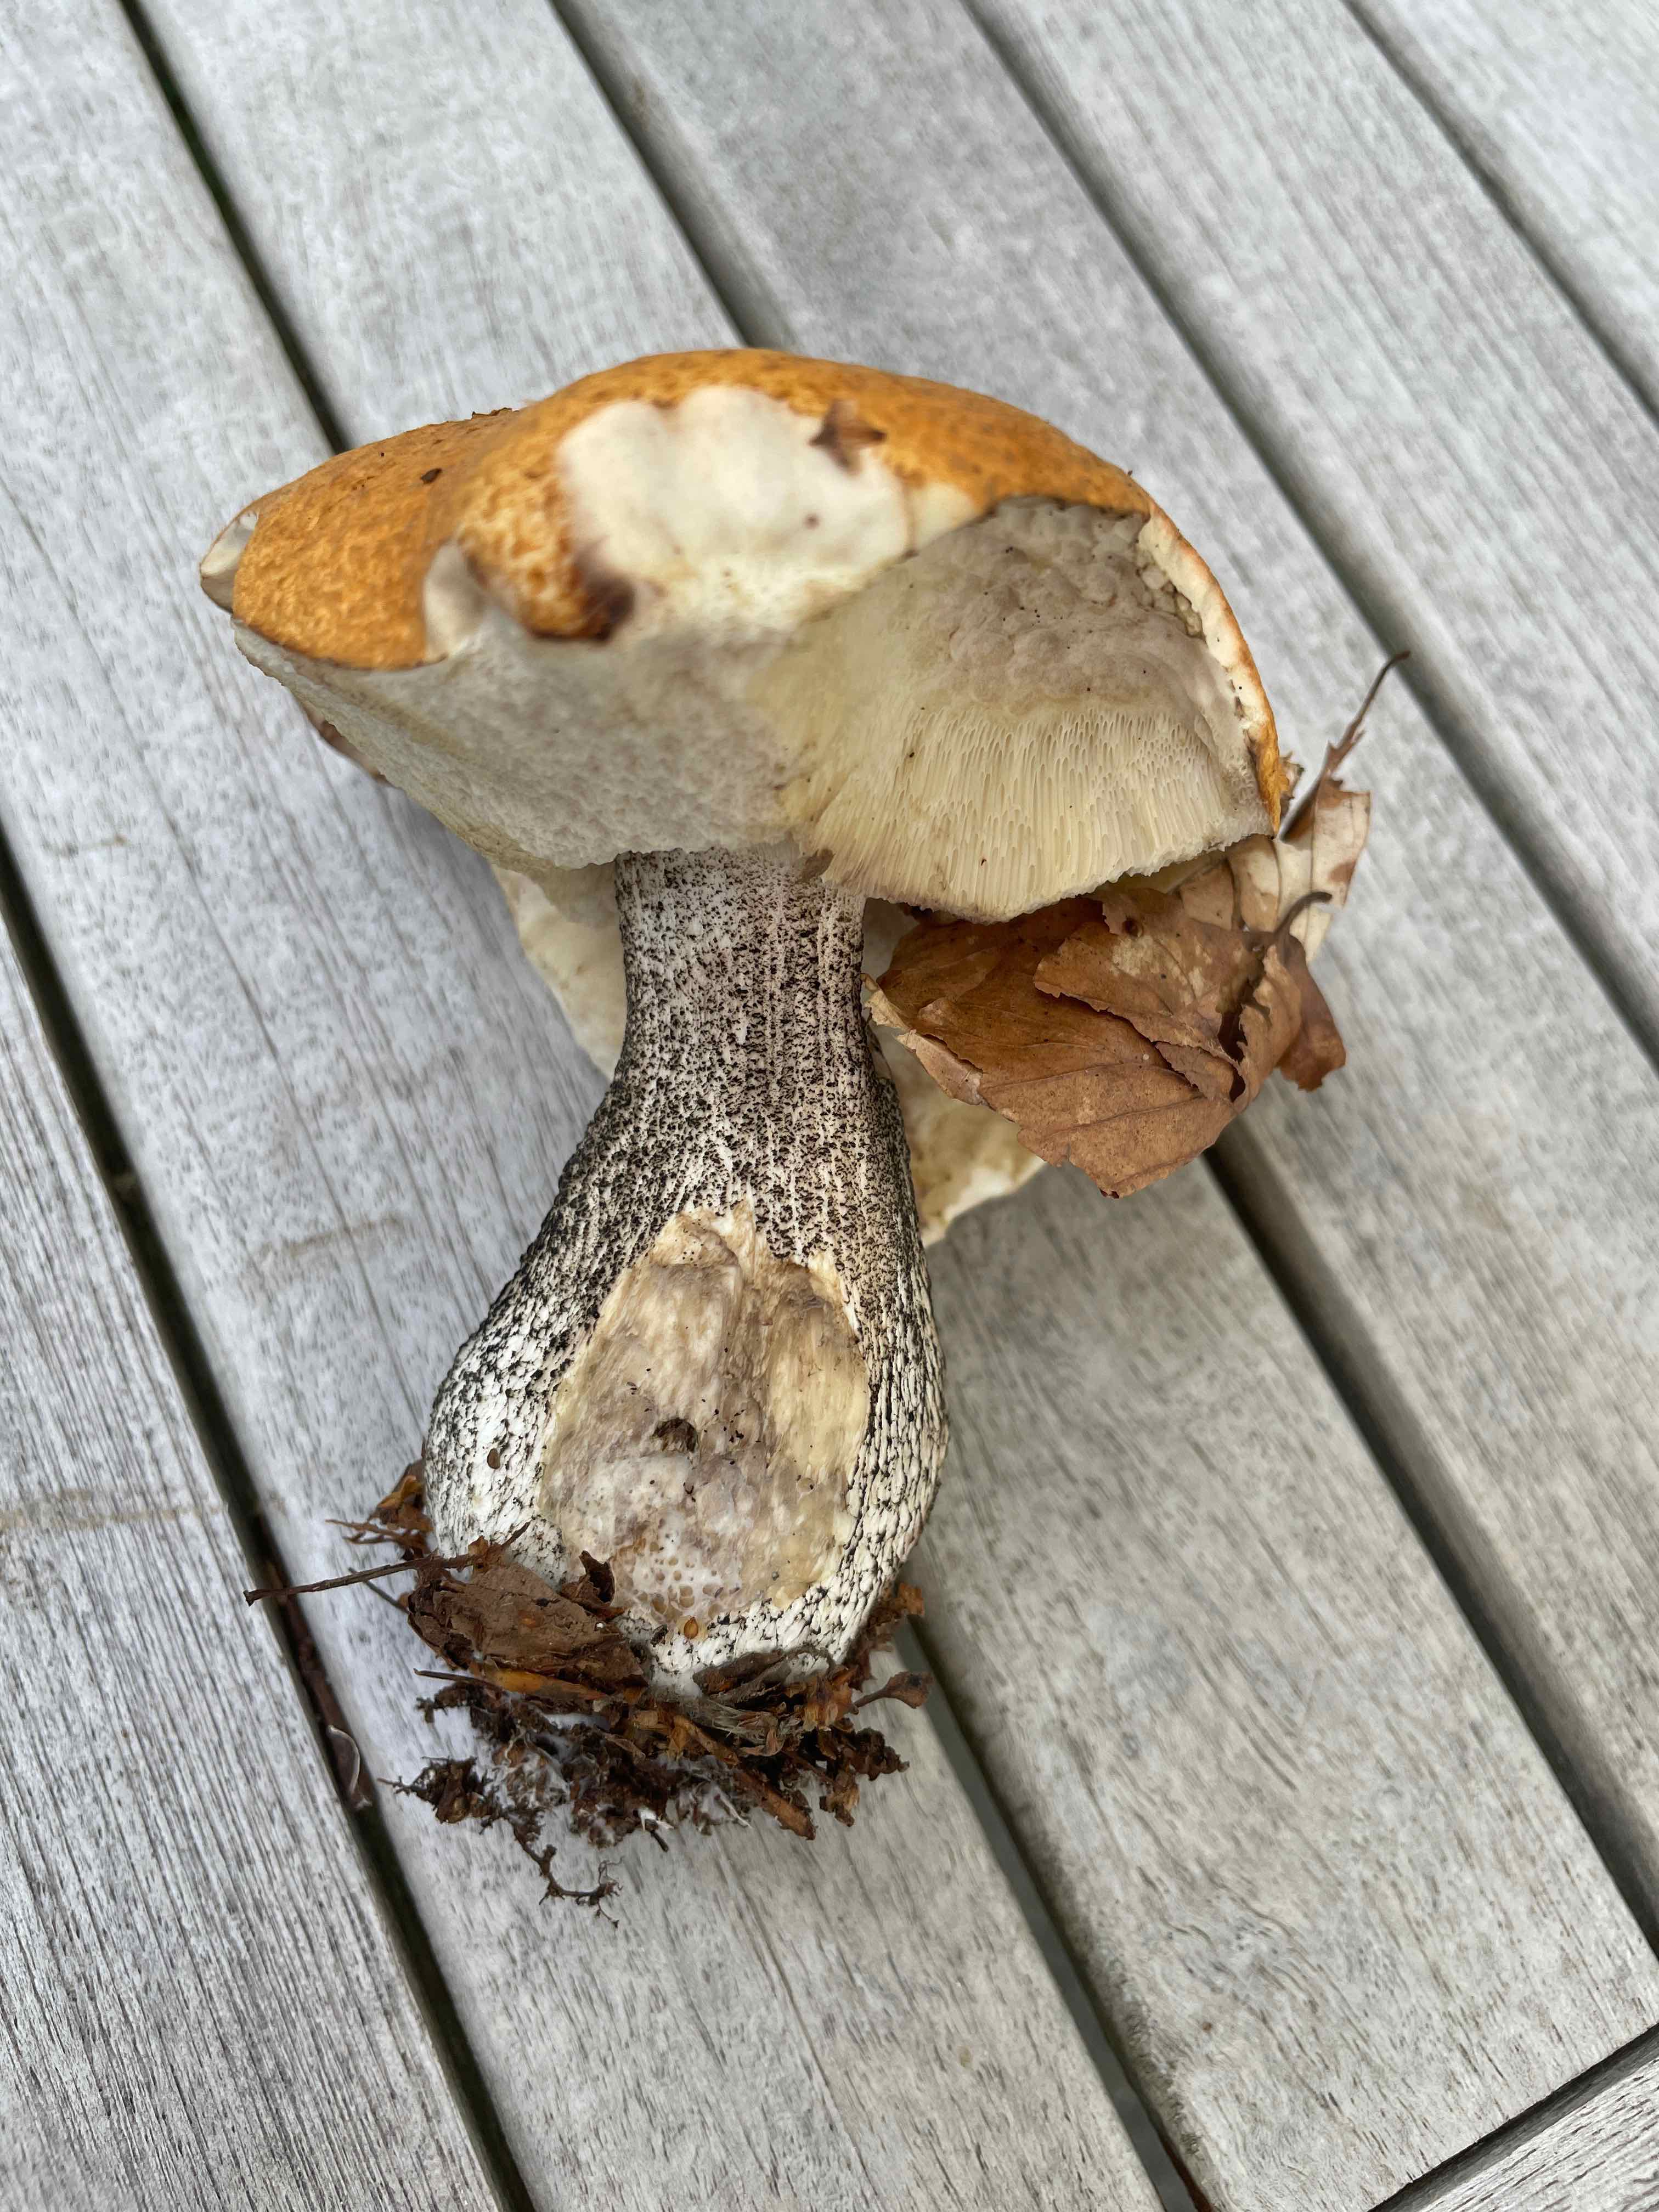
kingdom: Fungi
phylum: Basidiomycota
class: Agaricomycetes
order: Boletales
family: Boletaceae
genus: Leccinum
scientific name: Leccinum versipelle
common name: orange skælrørhat
